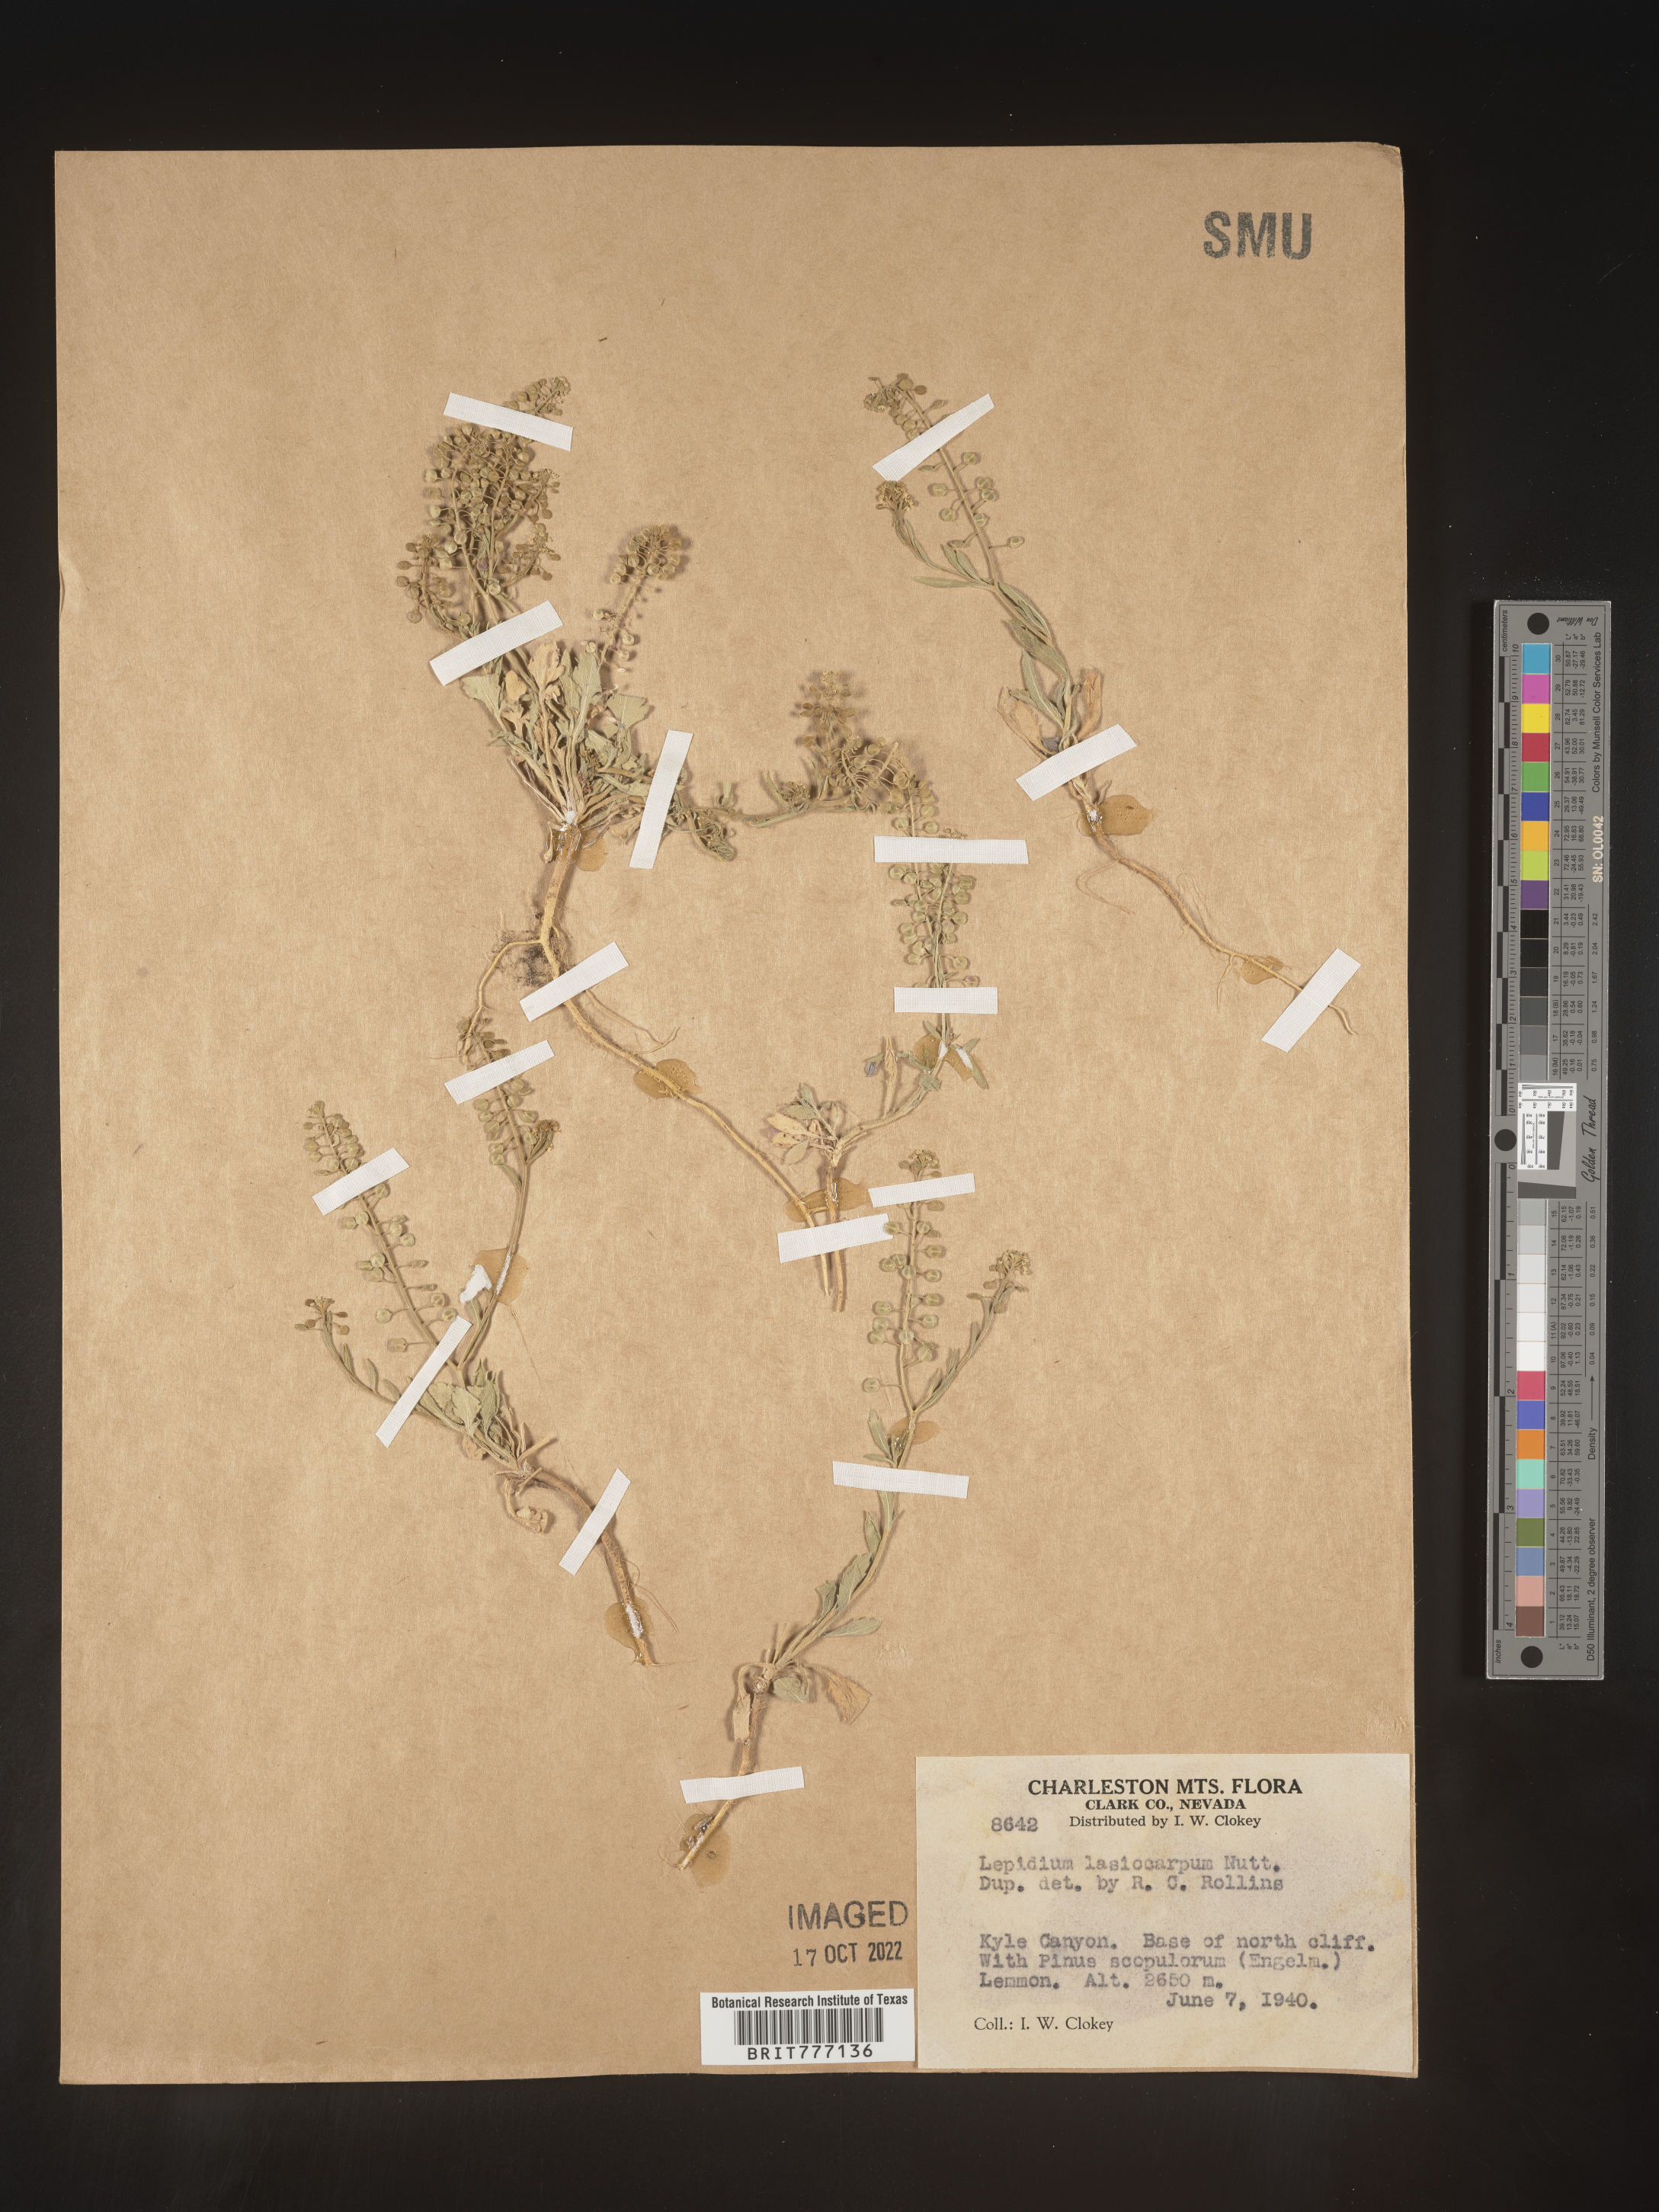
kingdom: Plantae
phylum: Tracheophyta
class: Magnoliopsida
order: Brassicales
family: Brassicaceae
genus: Lepidium
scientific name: Lepidium
